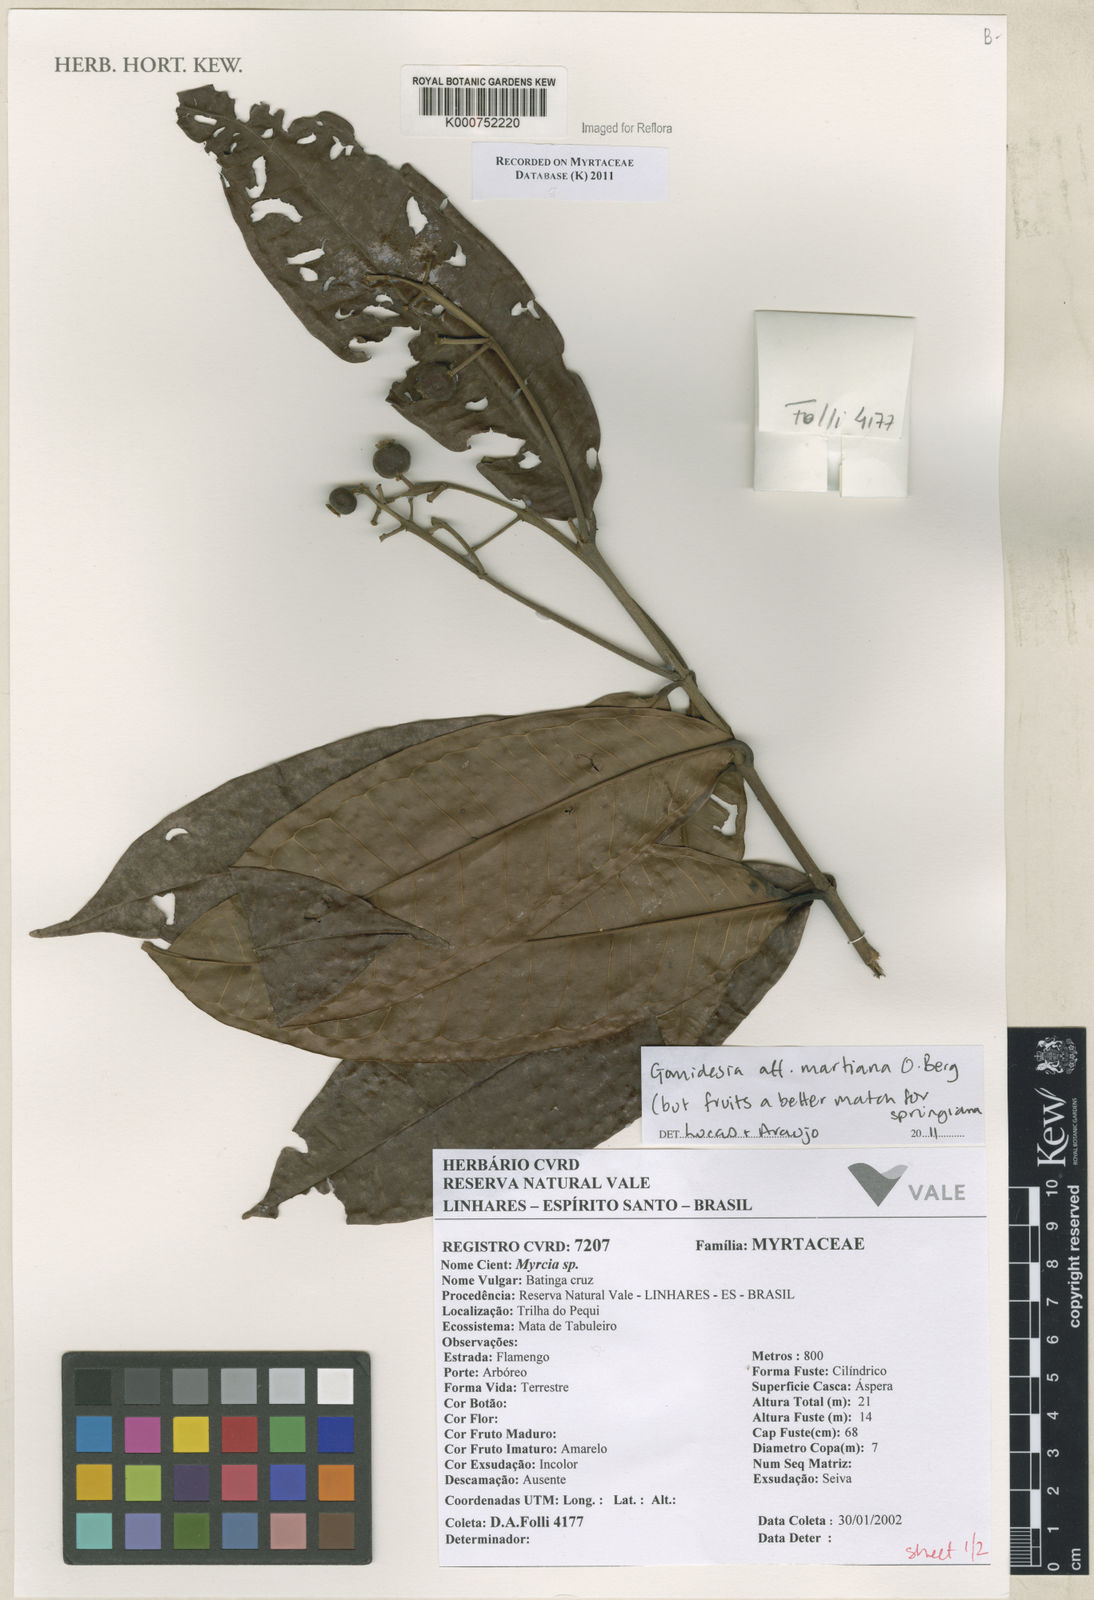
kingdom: Plantae
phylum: Tracheophyta
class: Magnoliopsida
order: Myrtales
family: Myrtaceae
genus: Myrcia
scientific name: Myrcia vittoriana
